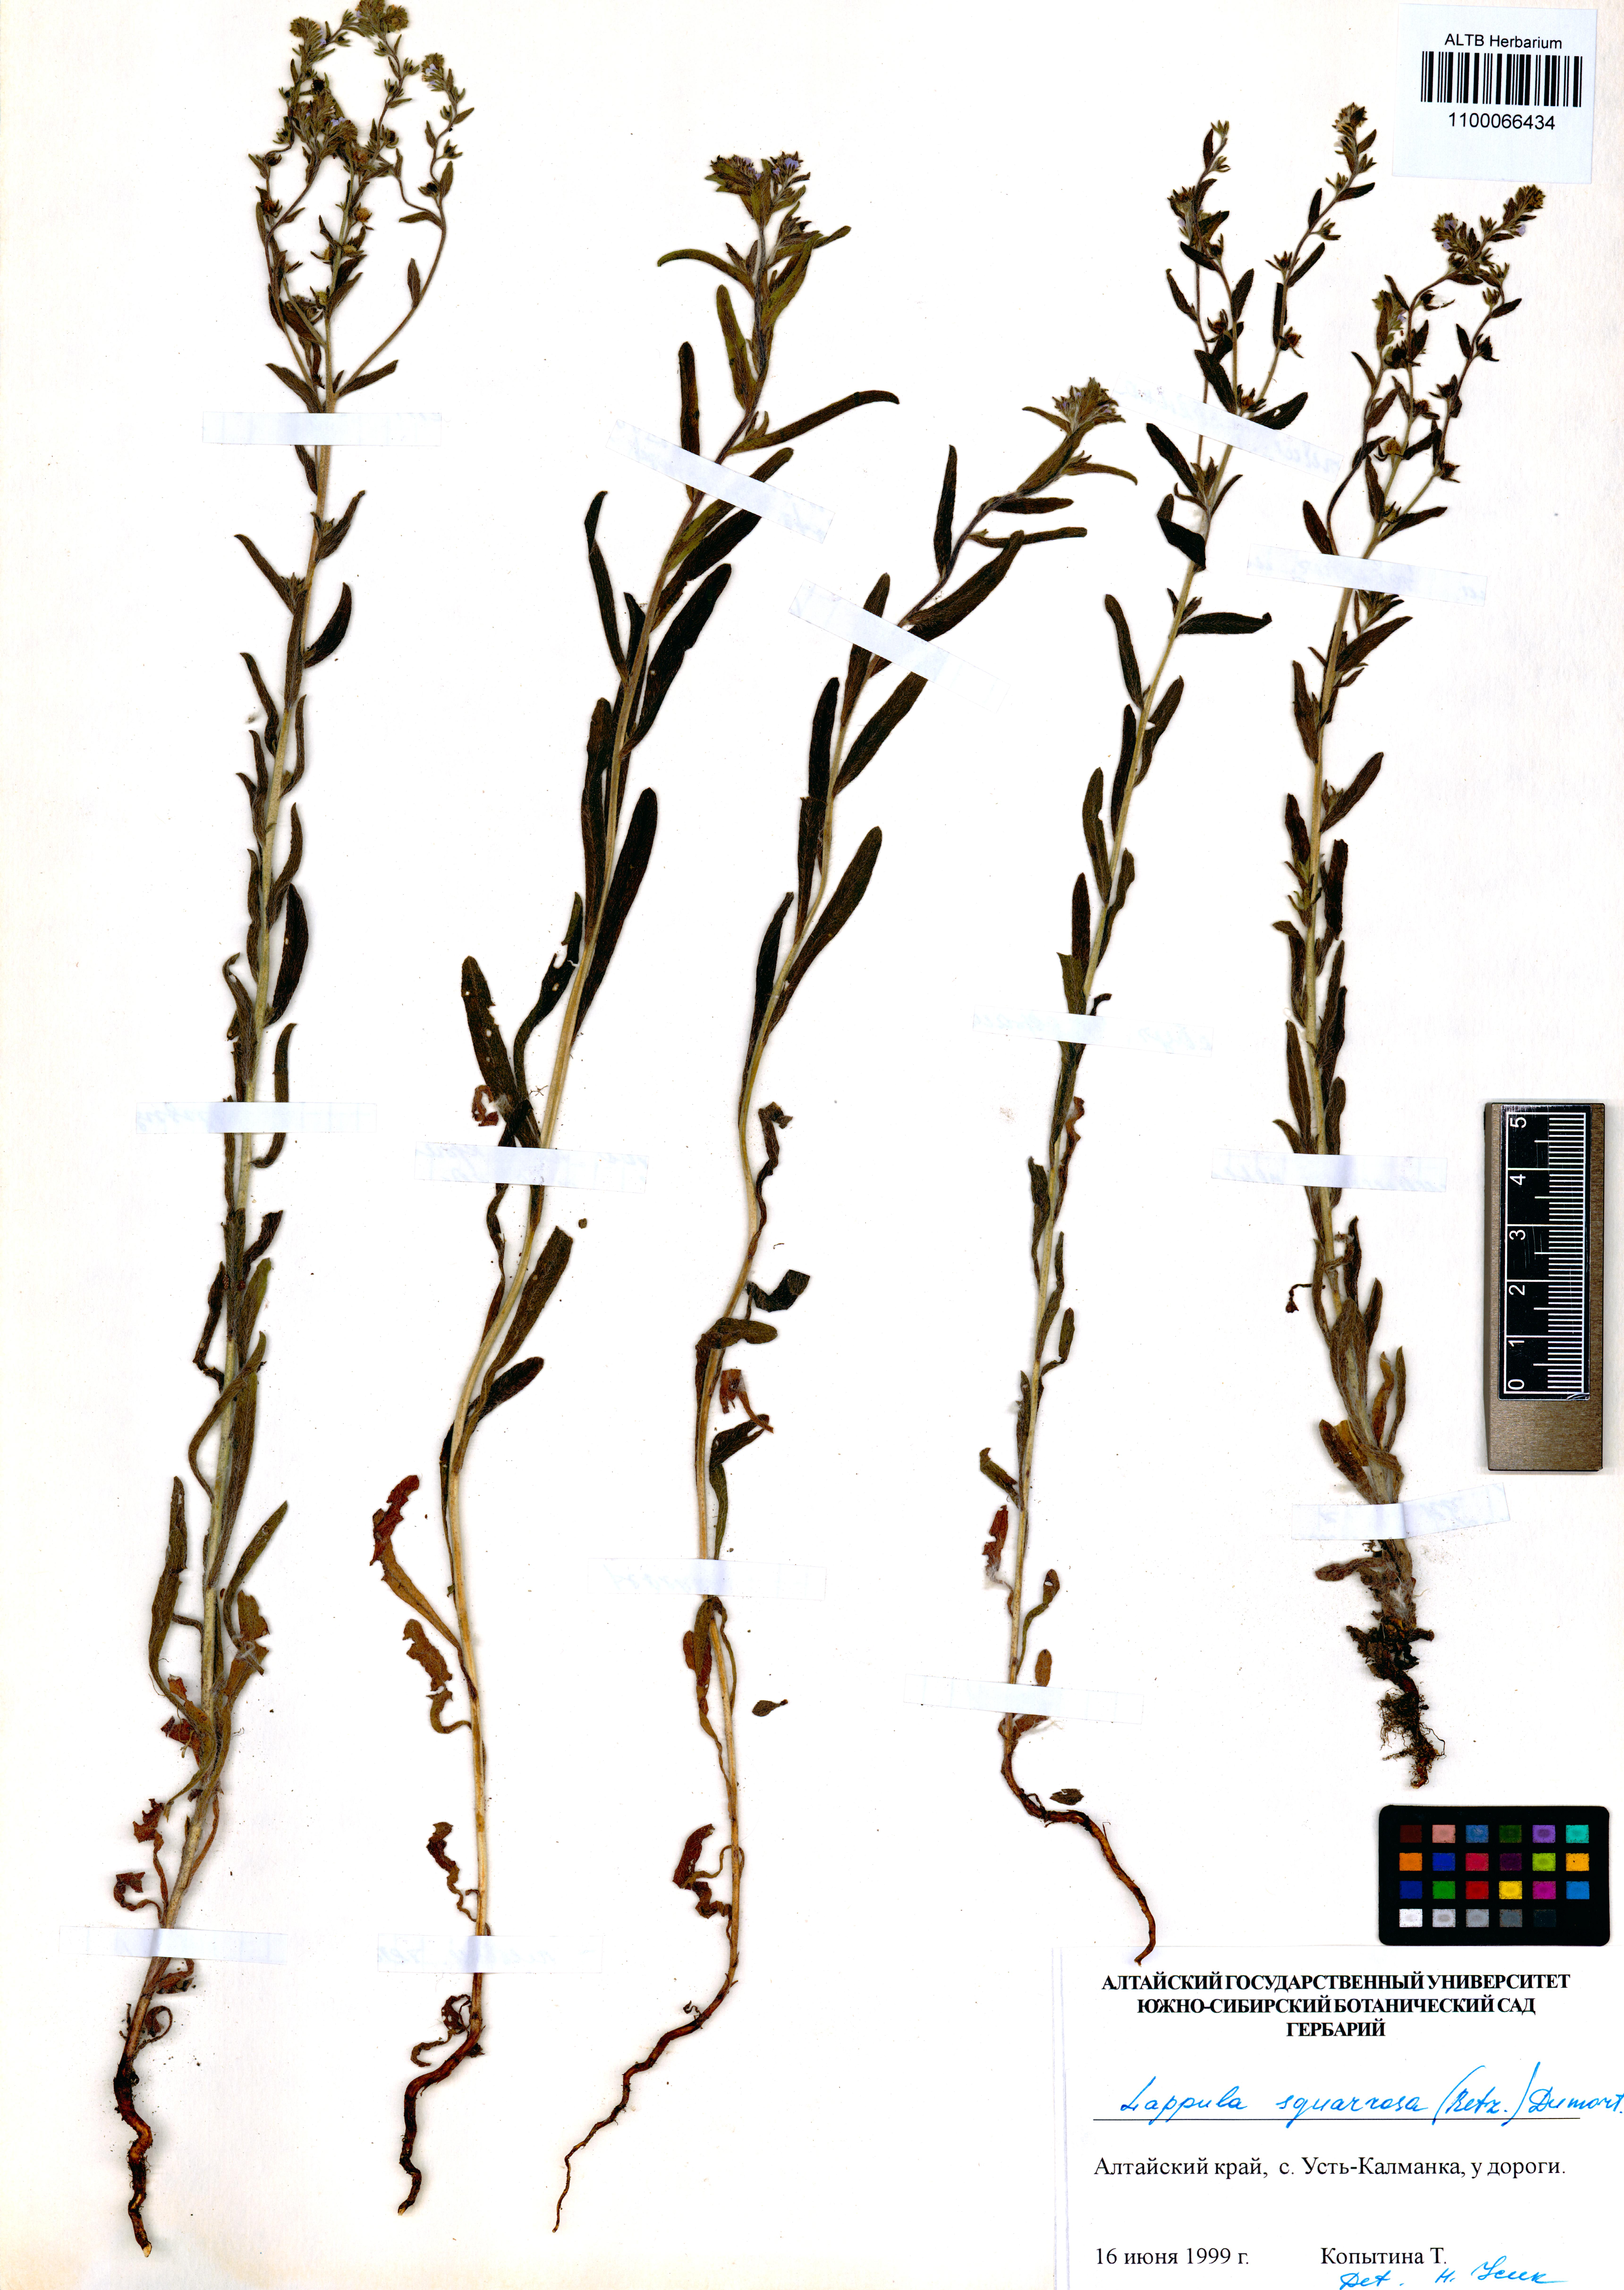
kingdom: Plantae
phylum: Tracheophyta
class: Magnoliopsida
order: Boraginales
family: Boraginaceae
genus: Lappula
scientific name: Lappula squarrosa
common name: European stickseed
